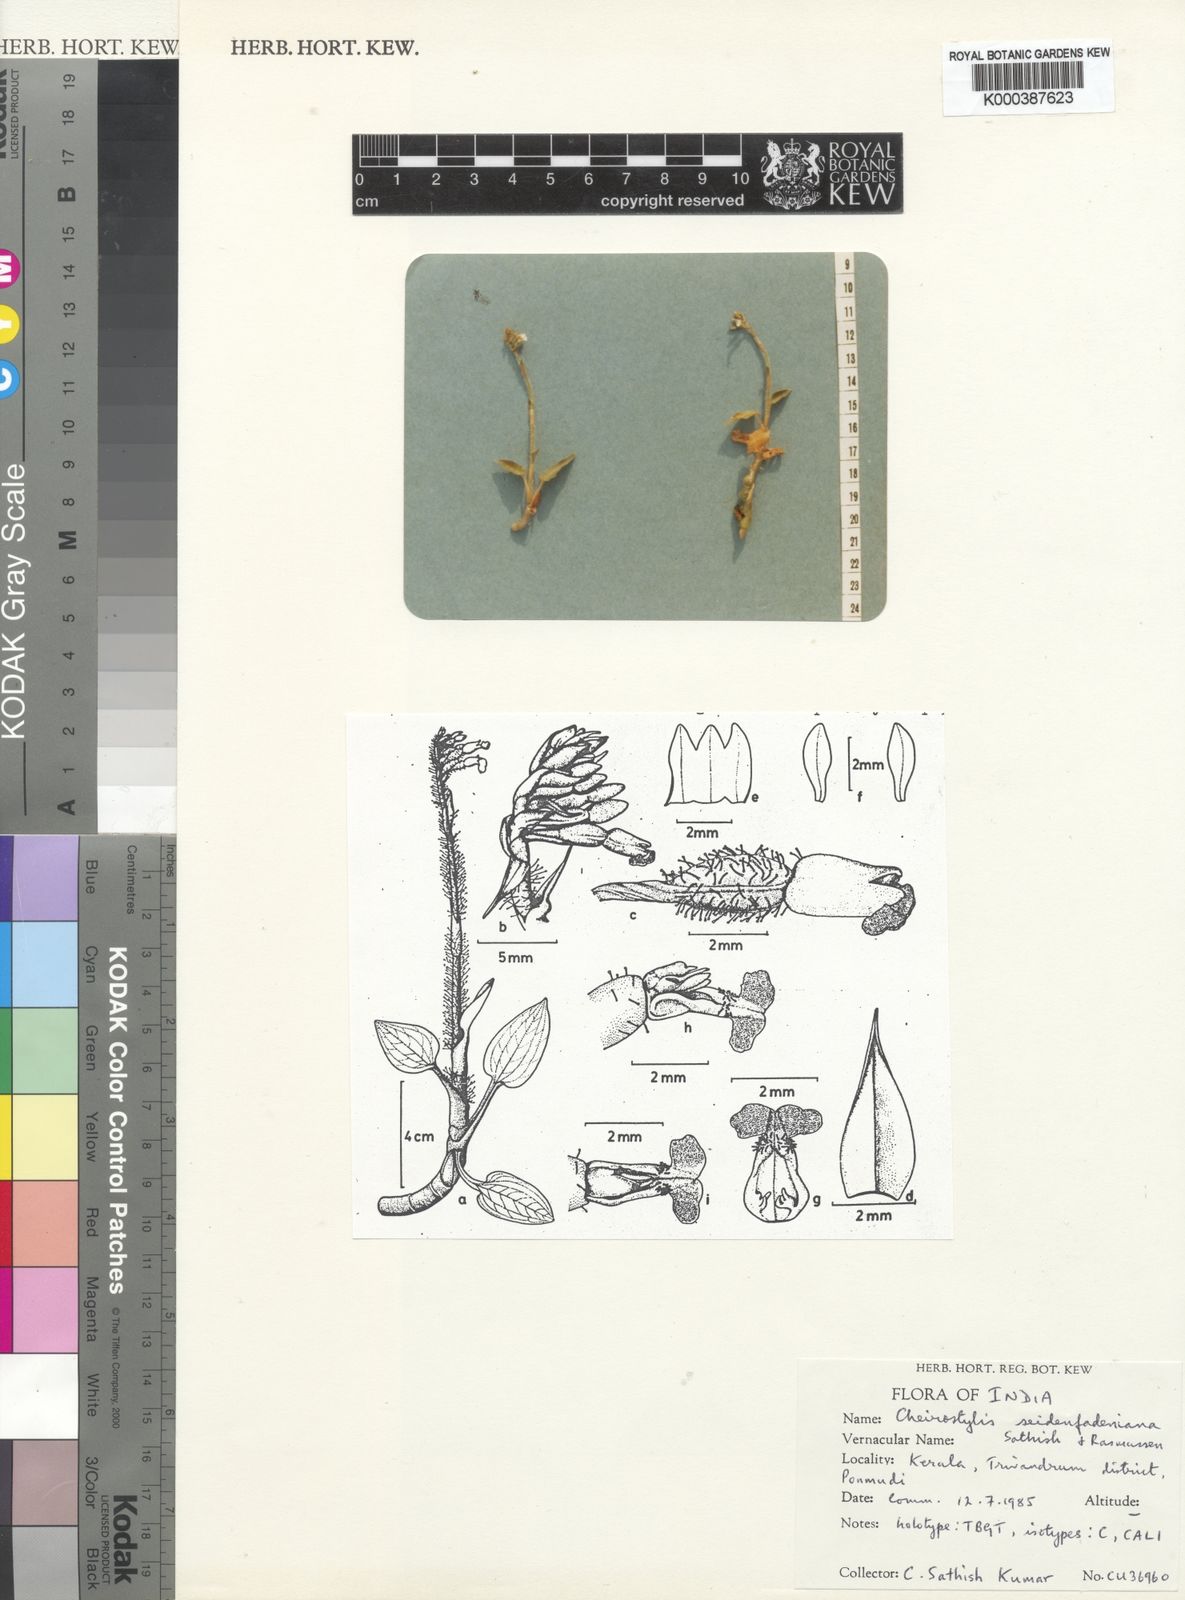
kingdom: Plantae
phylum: Tracheophyta
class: Liliopsida
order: Asparagales
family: Orchidaceae
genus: Zeuxine
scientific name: Zeuxine strateumatica
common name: Soldier's orchid
